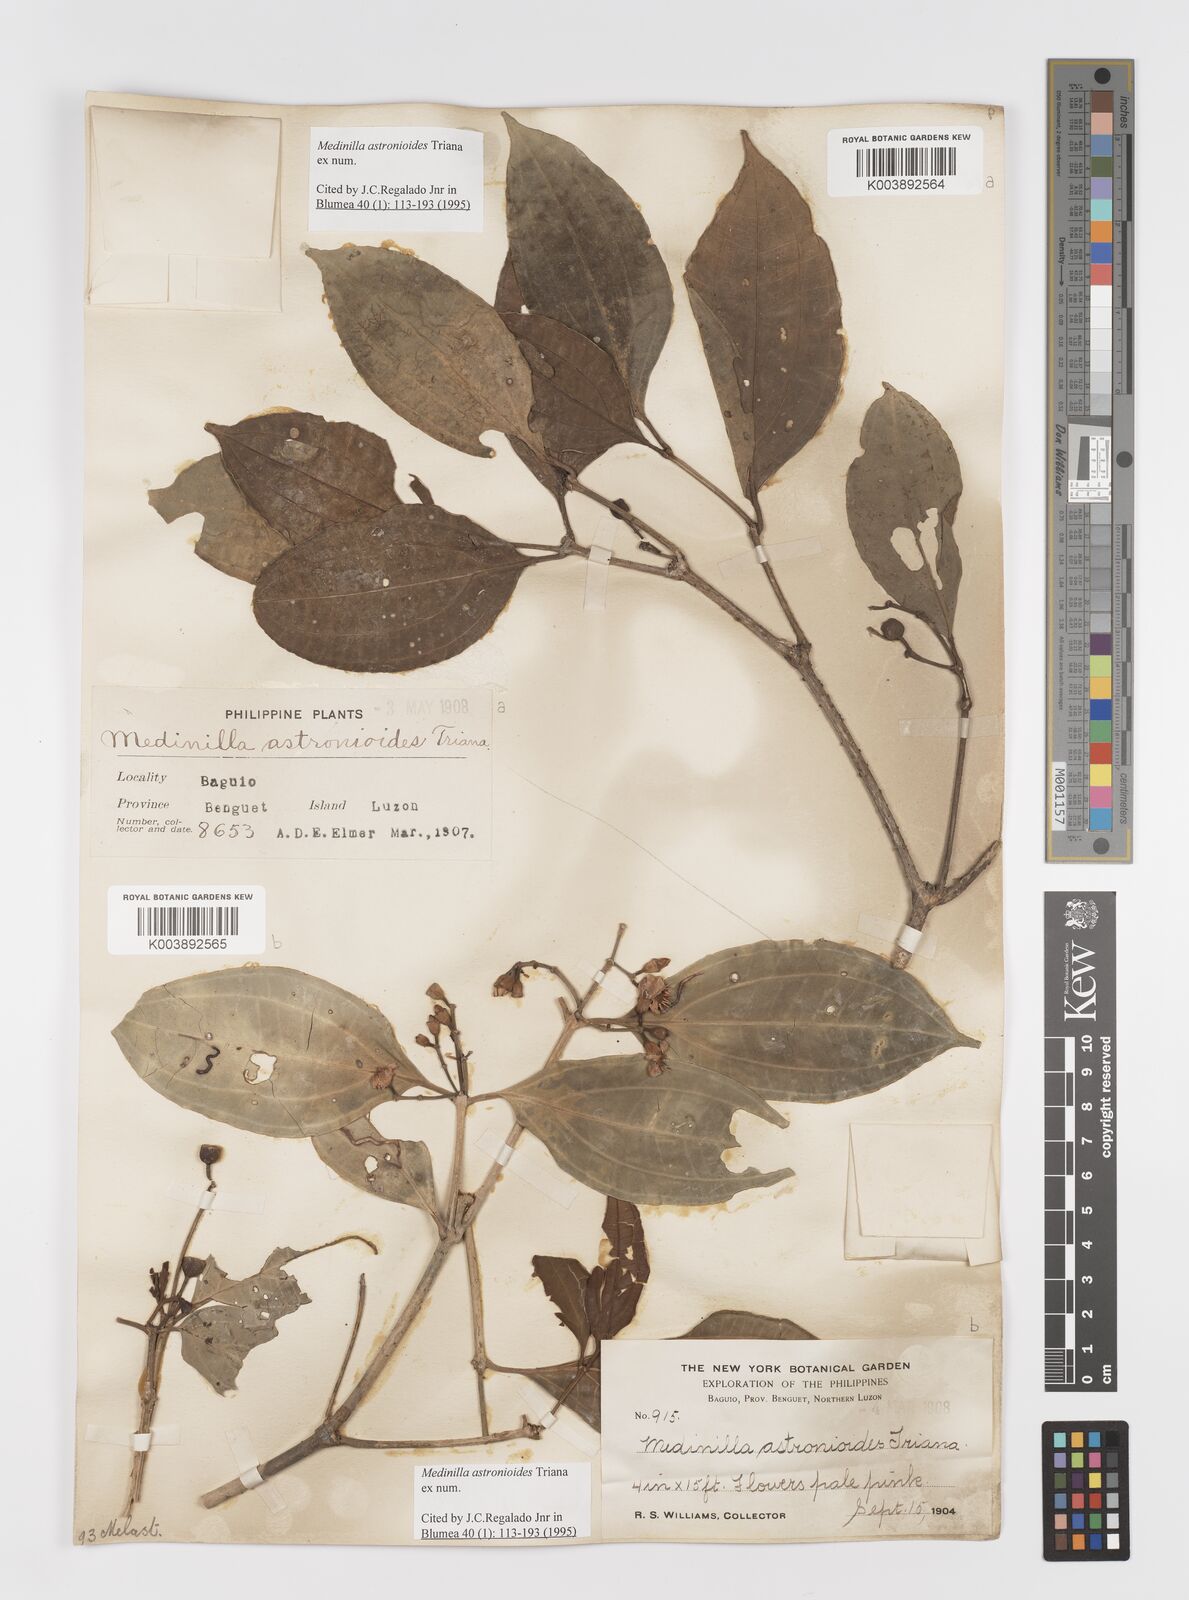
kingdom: Plantae
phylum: Tracheophyta
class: Magnoliopsida
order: Myrtales
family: Melastomataceae
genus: Medinilla
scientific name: Medinilla astronioides
